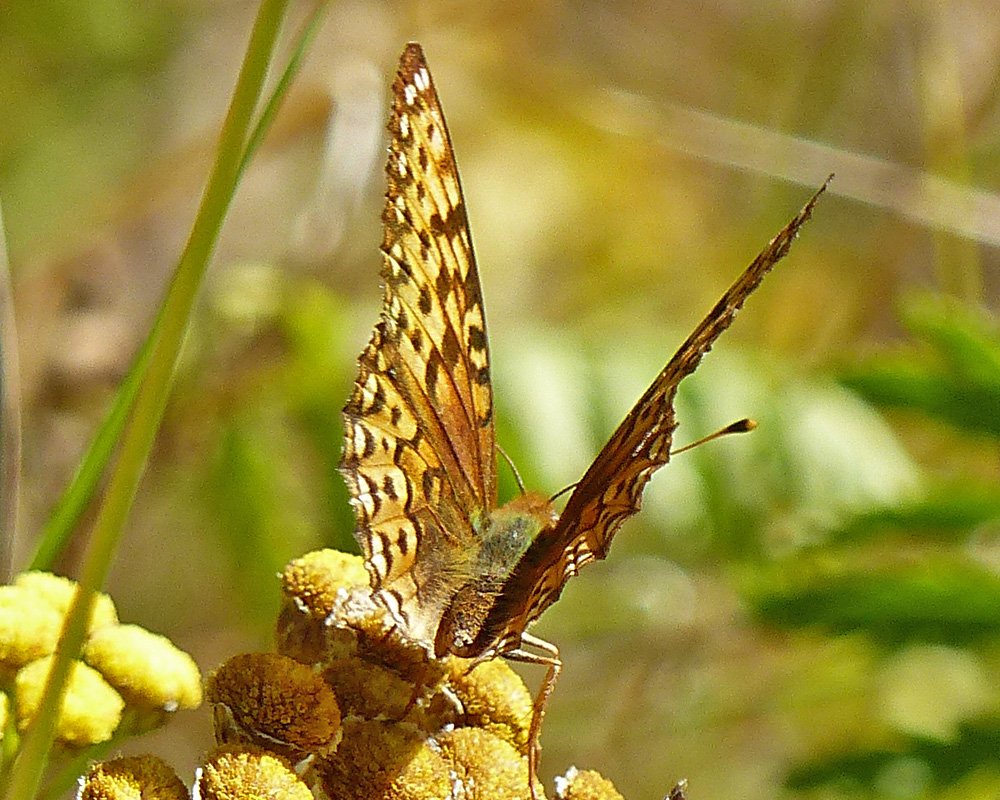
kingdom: Animalia
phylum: Arthropoda
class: Insecta
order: Lepidoptera
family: Nymphalidae
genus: Speyeria
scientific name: Speyeria hydaspe
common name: Hydaspe Fritillary
